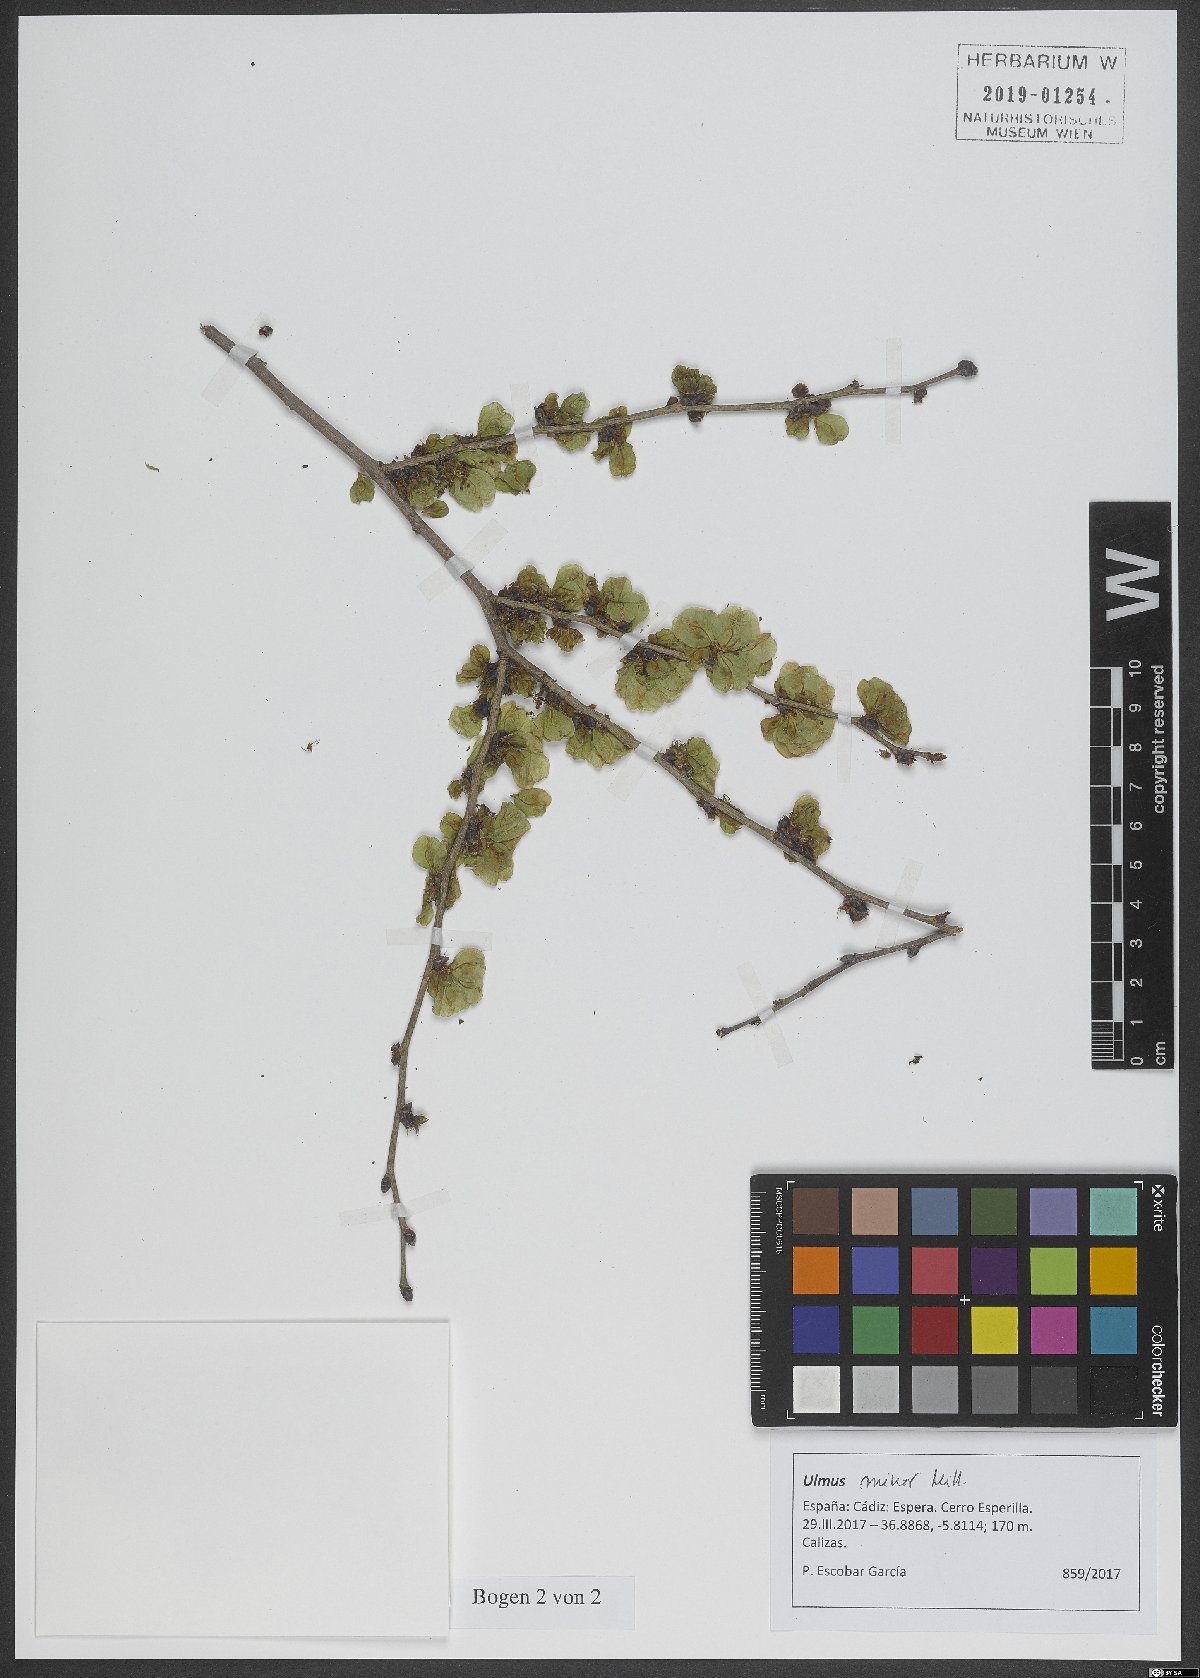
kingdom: Plantae
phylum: Tracheophyta
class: Magnoliopsida
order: Rosales
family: Ulmaceae
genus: Ulmus
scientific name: Ulmus minor
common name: Small-leaved elm
